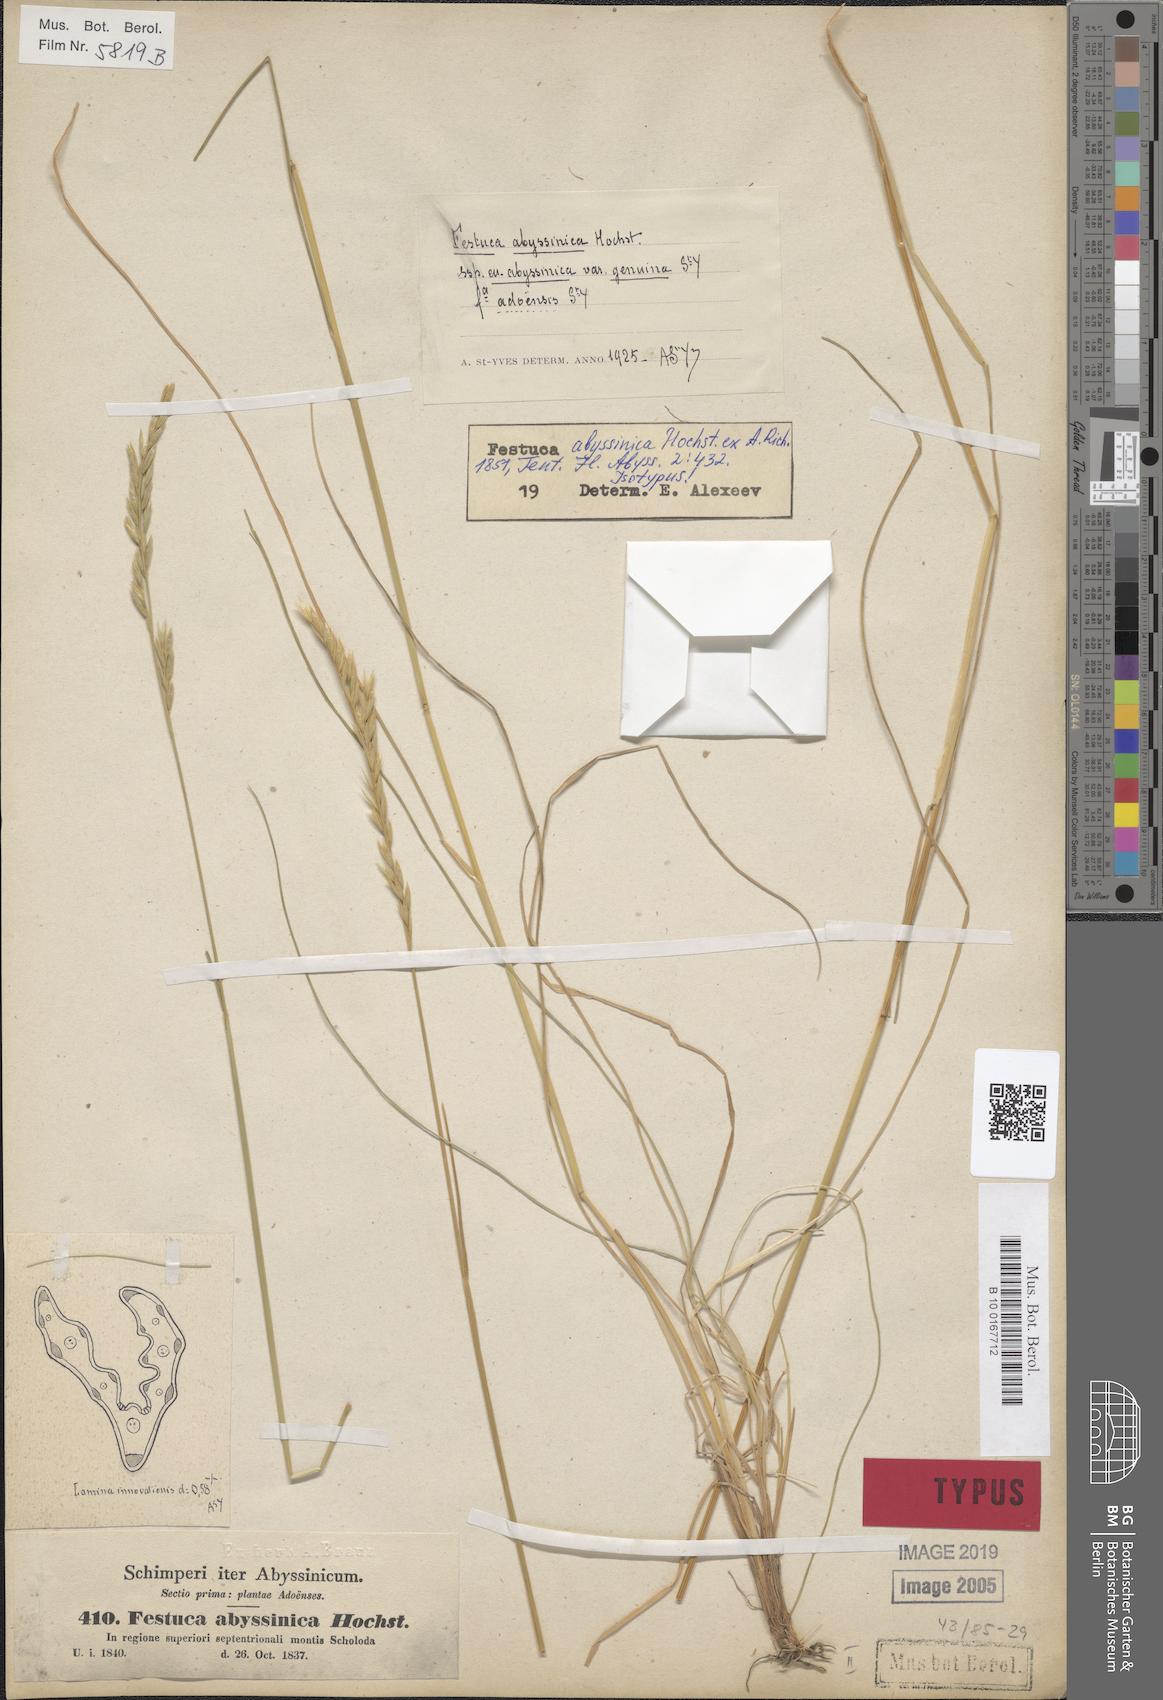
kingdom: Plantae
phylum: Tracheophyta
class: Liliopsida
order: Poales
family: Poaceae
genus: Festuca
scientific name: Festuca abyssinica
